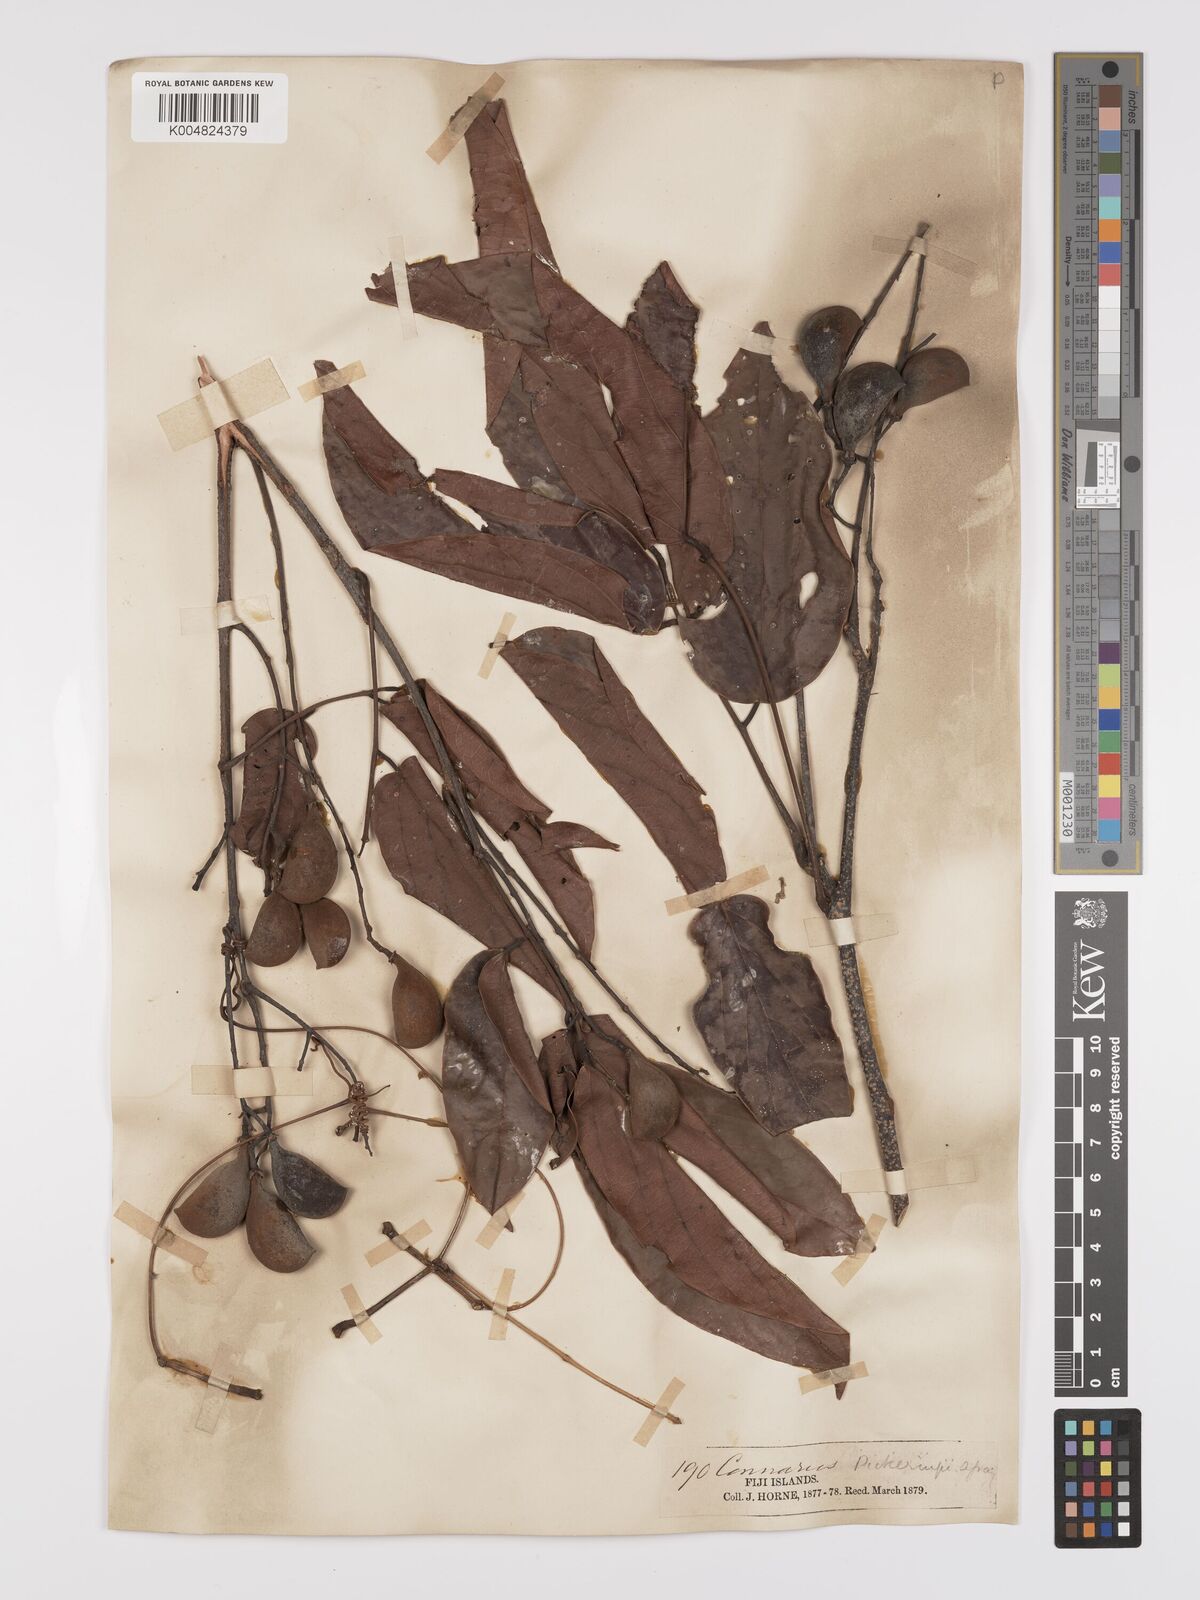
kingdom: Plantae
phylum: Tracheophyta
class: Magnoliopsida
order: Oxalidales
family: Connaraceae
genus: Connarus
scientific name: Connarus pickeringii
